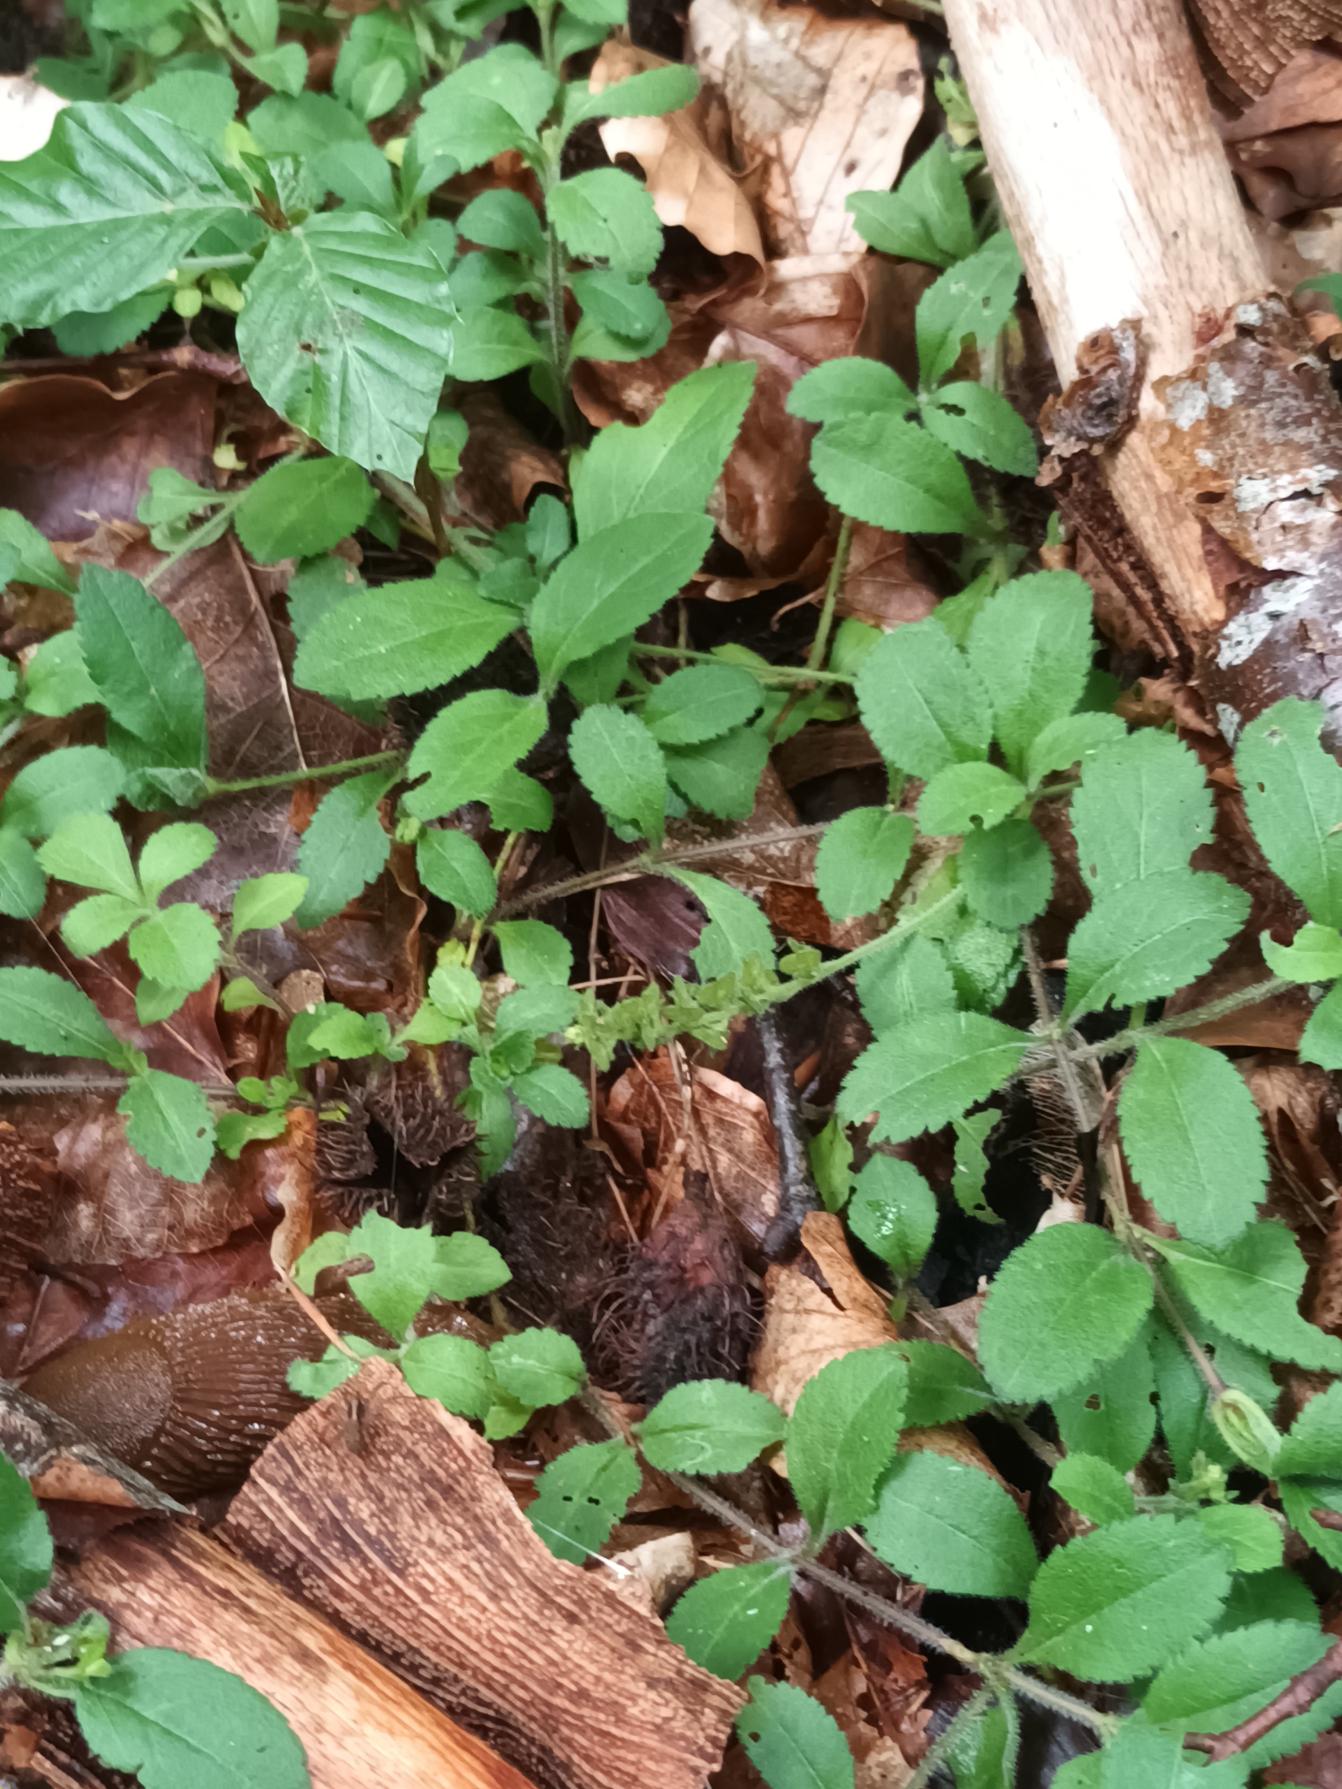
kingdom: Plantae
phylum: Tracheophyta
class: Magnoliopsida
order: Lamiales
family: Plantaginaceae
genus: Veronica
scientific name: Veronica officinalis
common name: Læge-ærenpris
